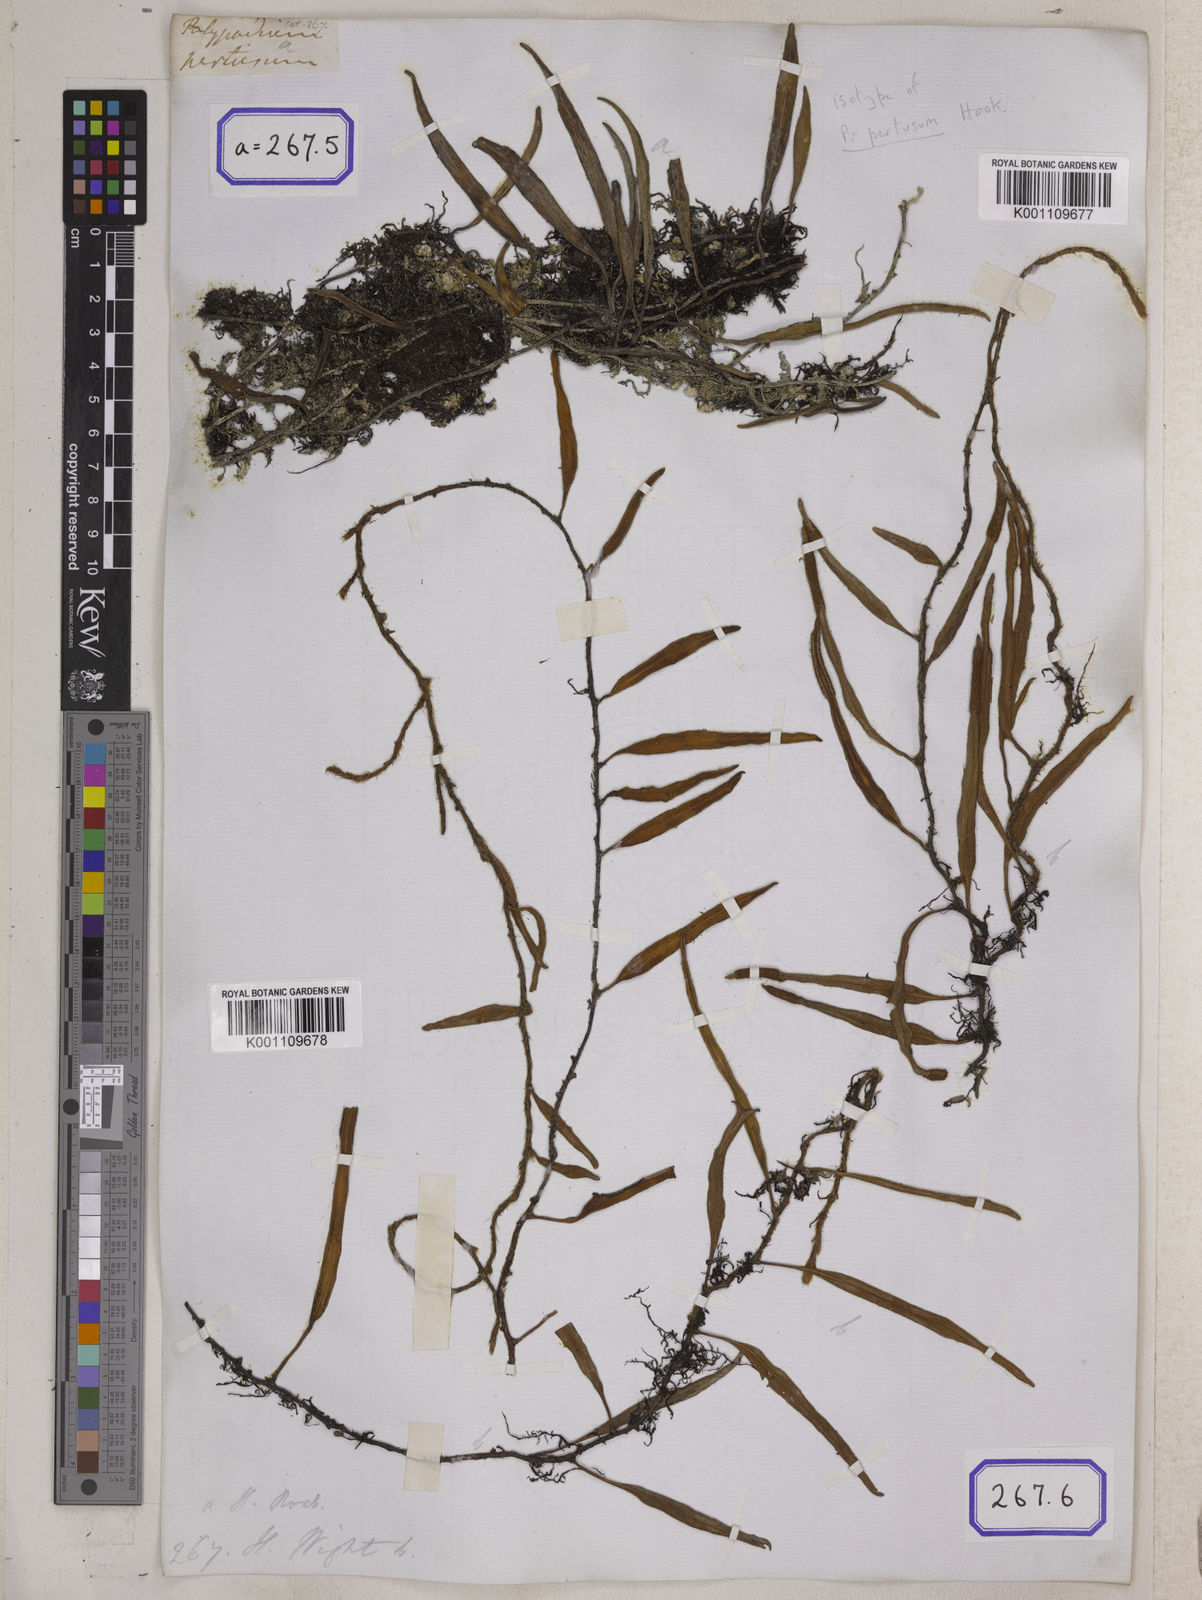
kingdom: Plantae
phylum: Tracheophyta
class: Polypodiopsida
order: Polypodiales
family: Polypodiaceae
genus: Polypodium
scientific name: Polypodium
